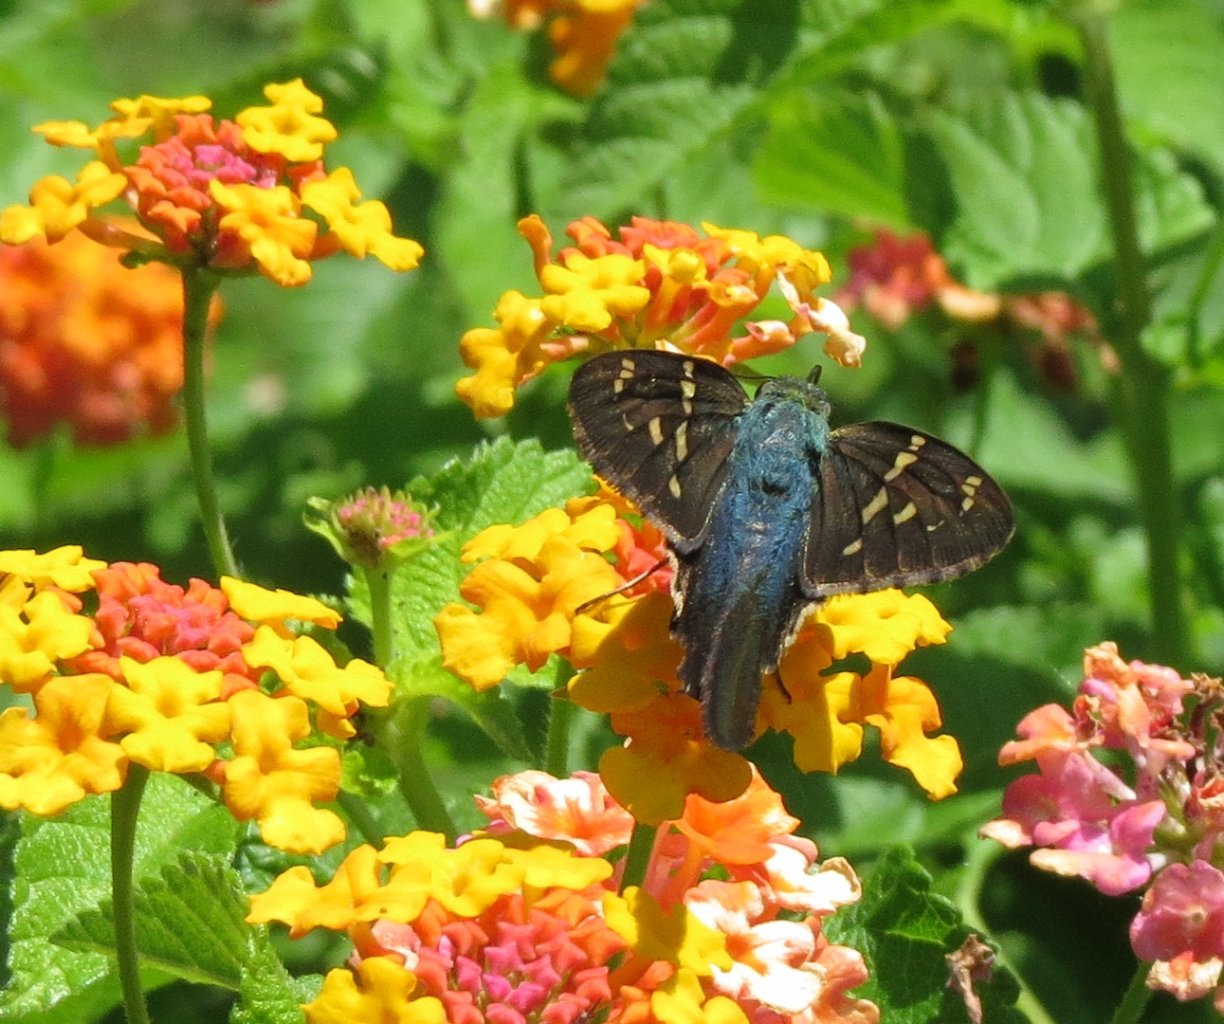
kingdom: Animalia
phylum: Arthropoda
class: Insecta
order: Lepidoptera
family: Hesperiidae
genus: Urbanus
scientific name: Urbanus proteus
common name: Long-tailed Skipper
